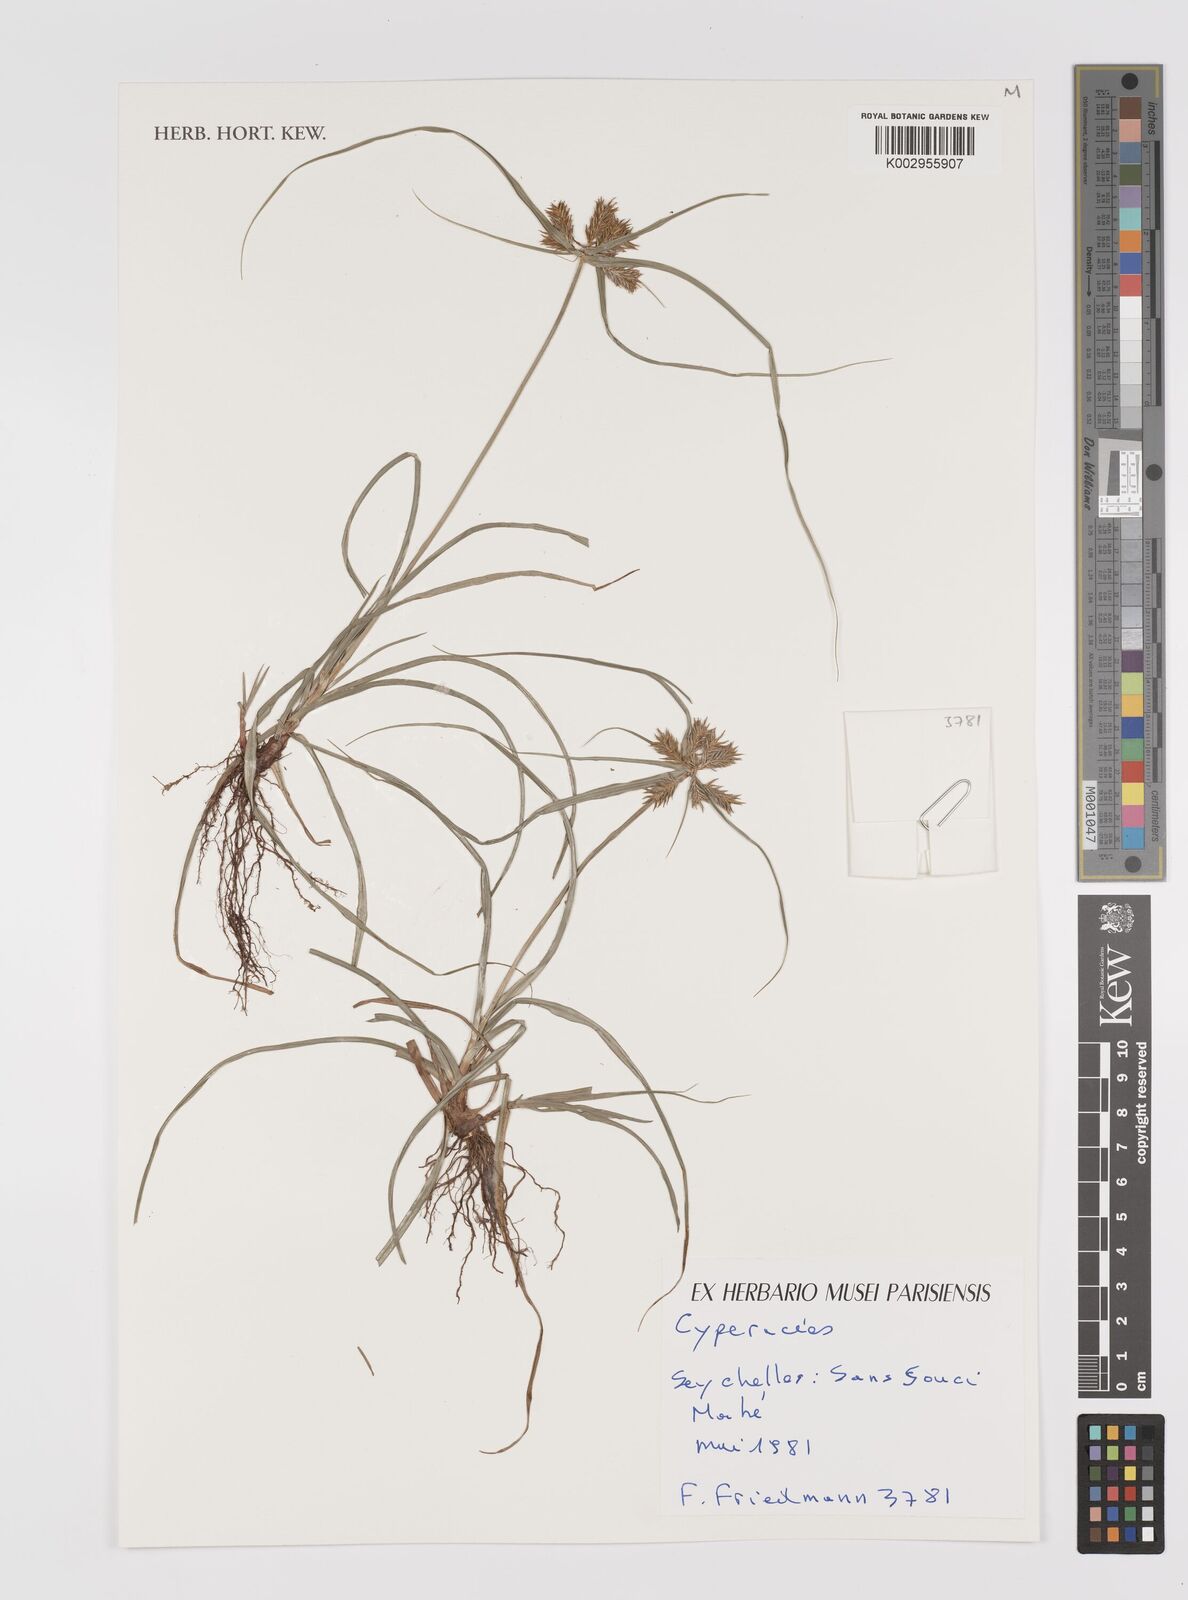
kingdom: Plantae
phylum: Tracheophyta
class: Liliopsida
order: Poales
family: Cyperaceae
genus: Cyperus
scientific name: Cyperus
